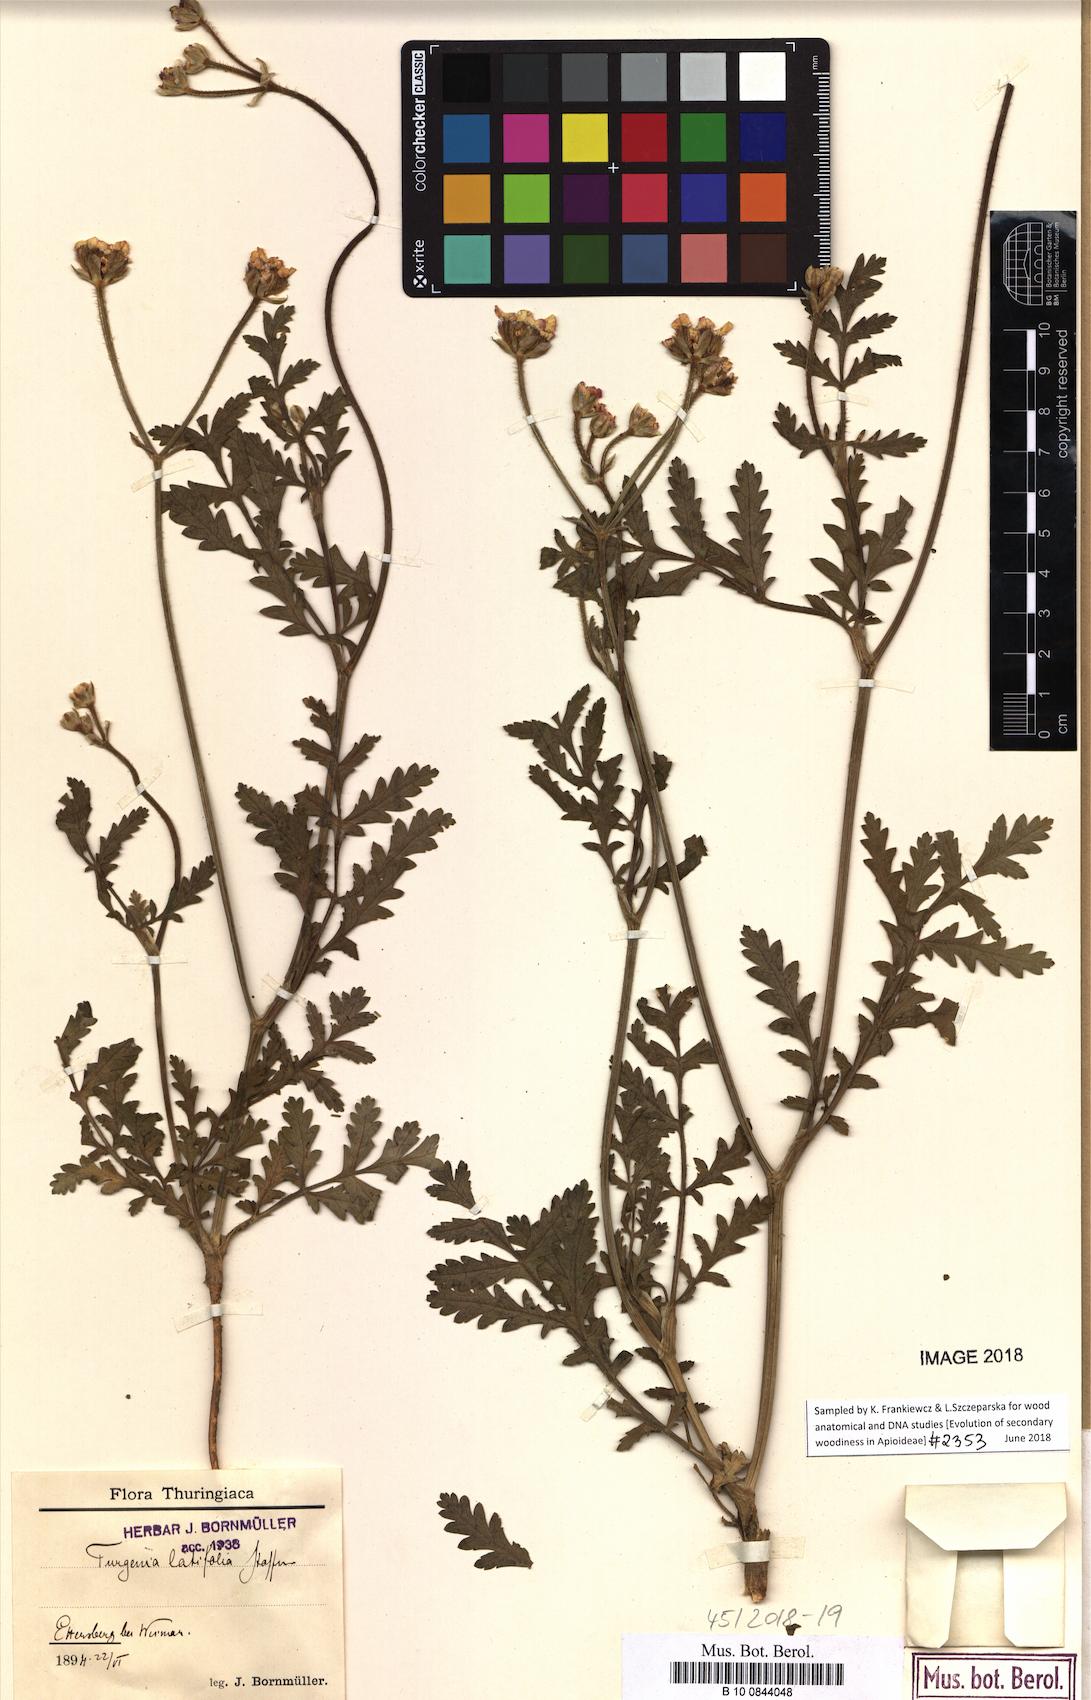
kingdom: Plantae
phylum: Tracheophyta
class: Magnoliopsida
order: Apiales
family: Apiaceae
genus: Turgenia
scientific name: Turgenia latifolia
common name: Greater bur-parsley
